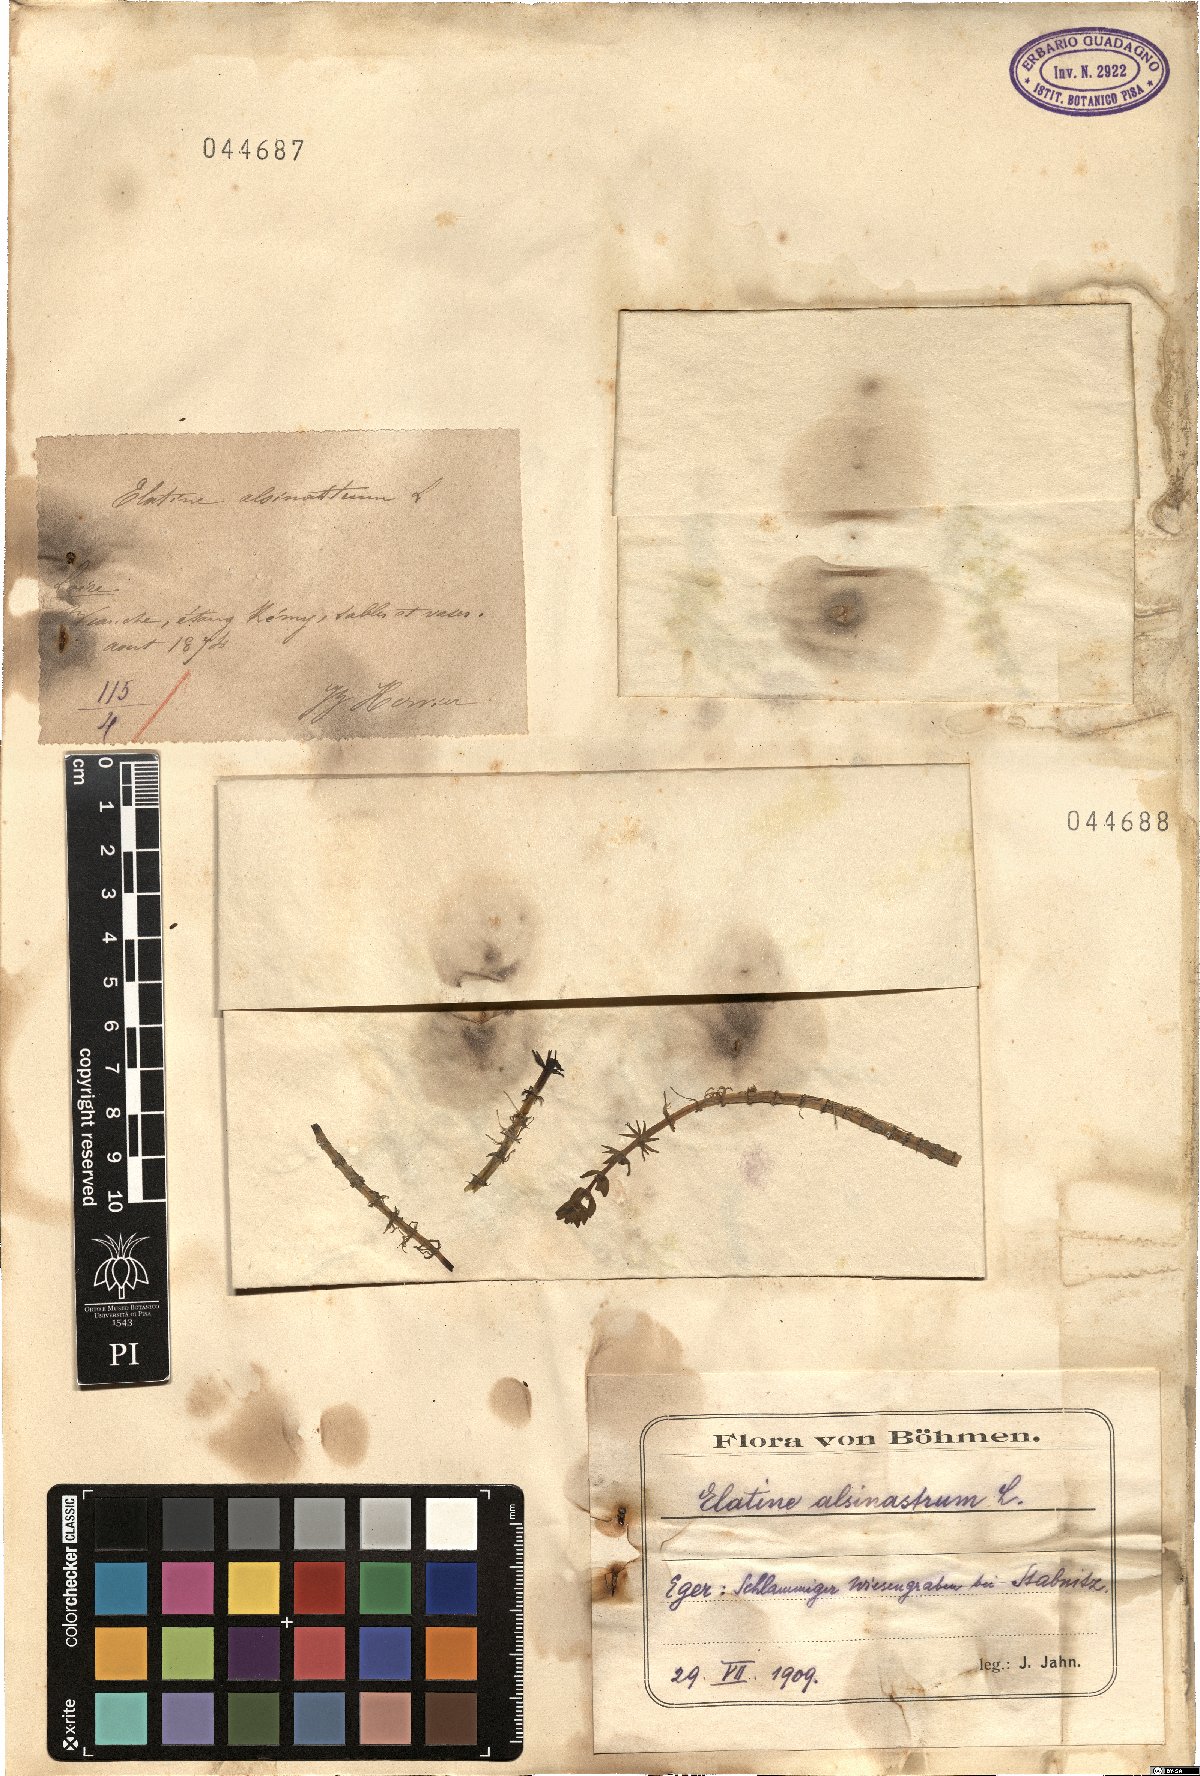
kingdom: Plantae
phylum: Tracheophyta
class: Magnoliopsida
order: Malpighiales
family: Elatinaceae
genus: Elatine
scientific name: Elatine alsinastrum
